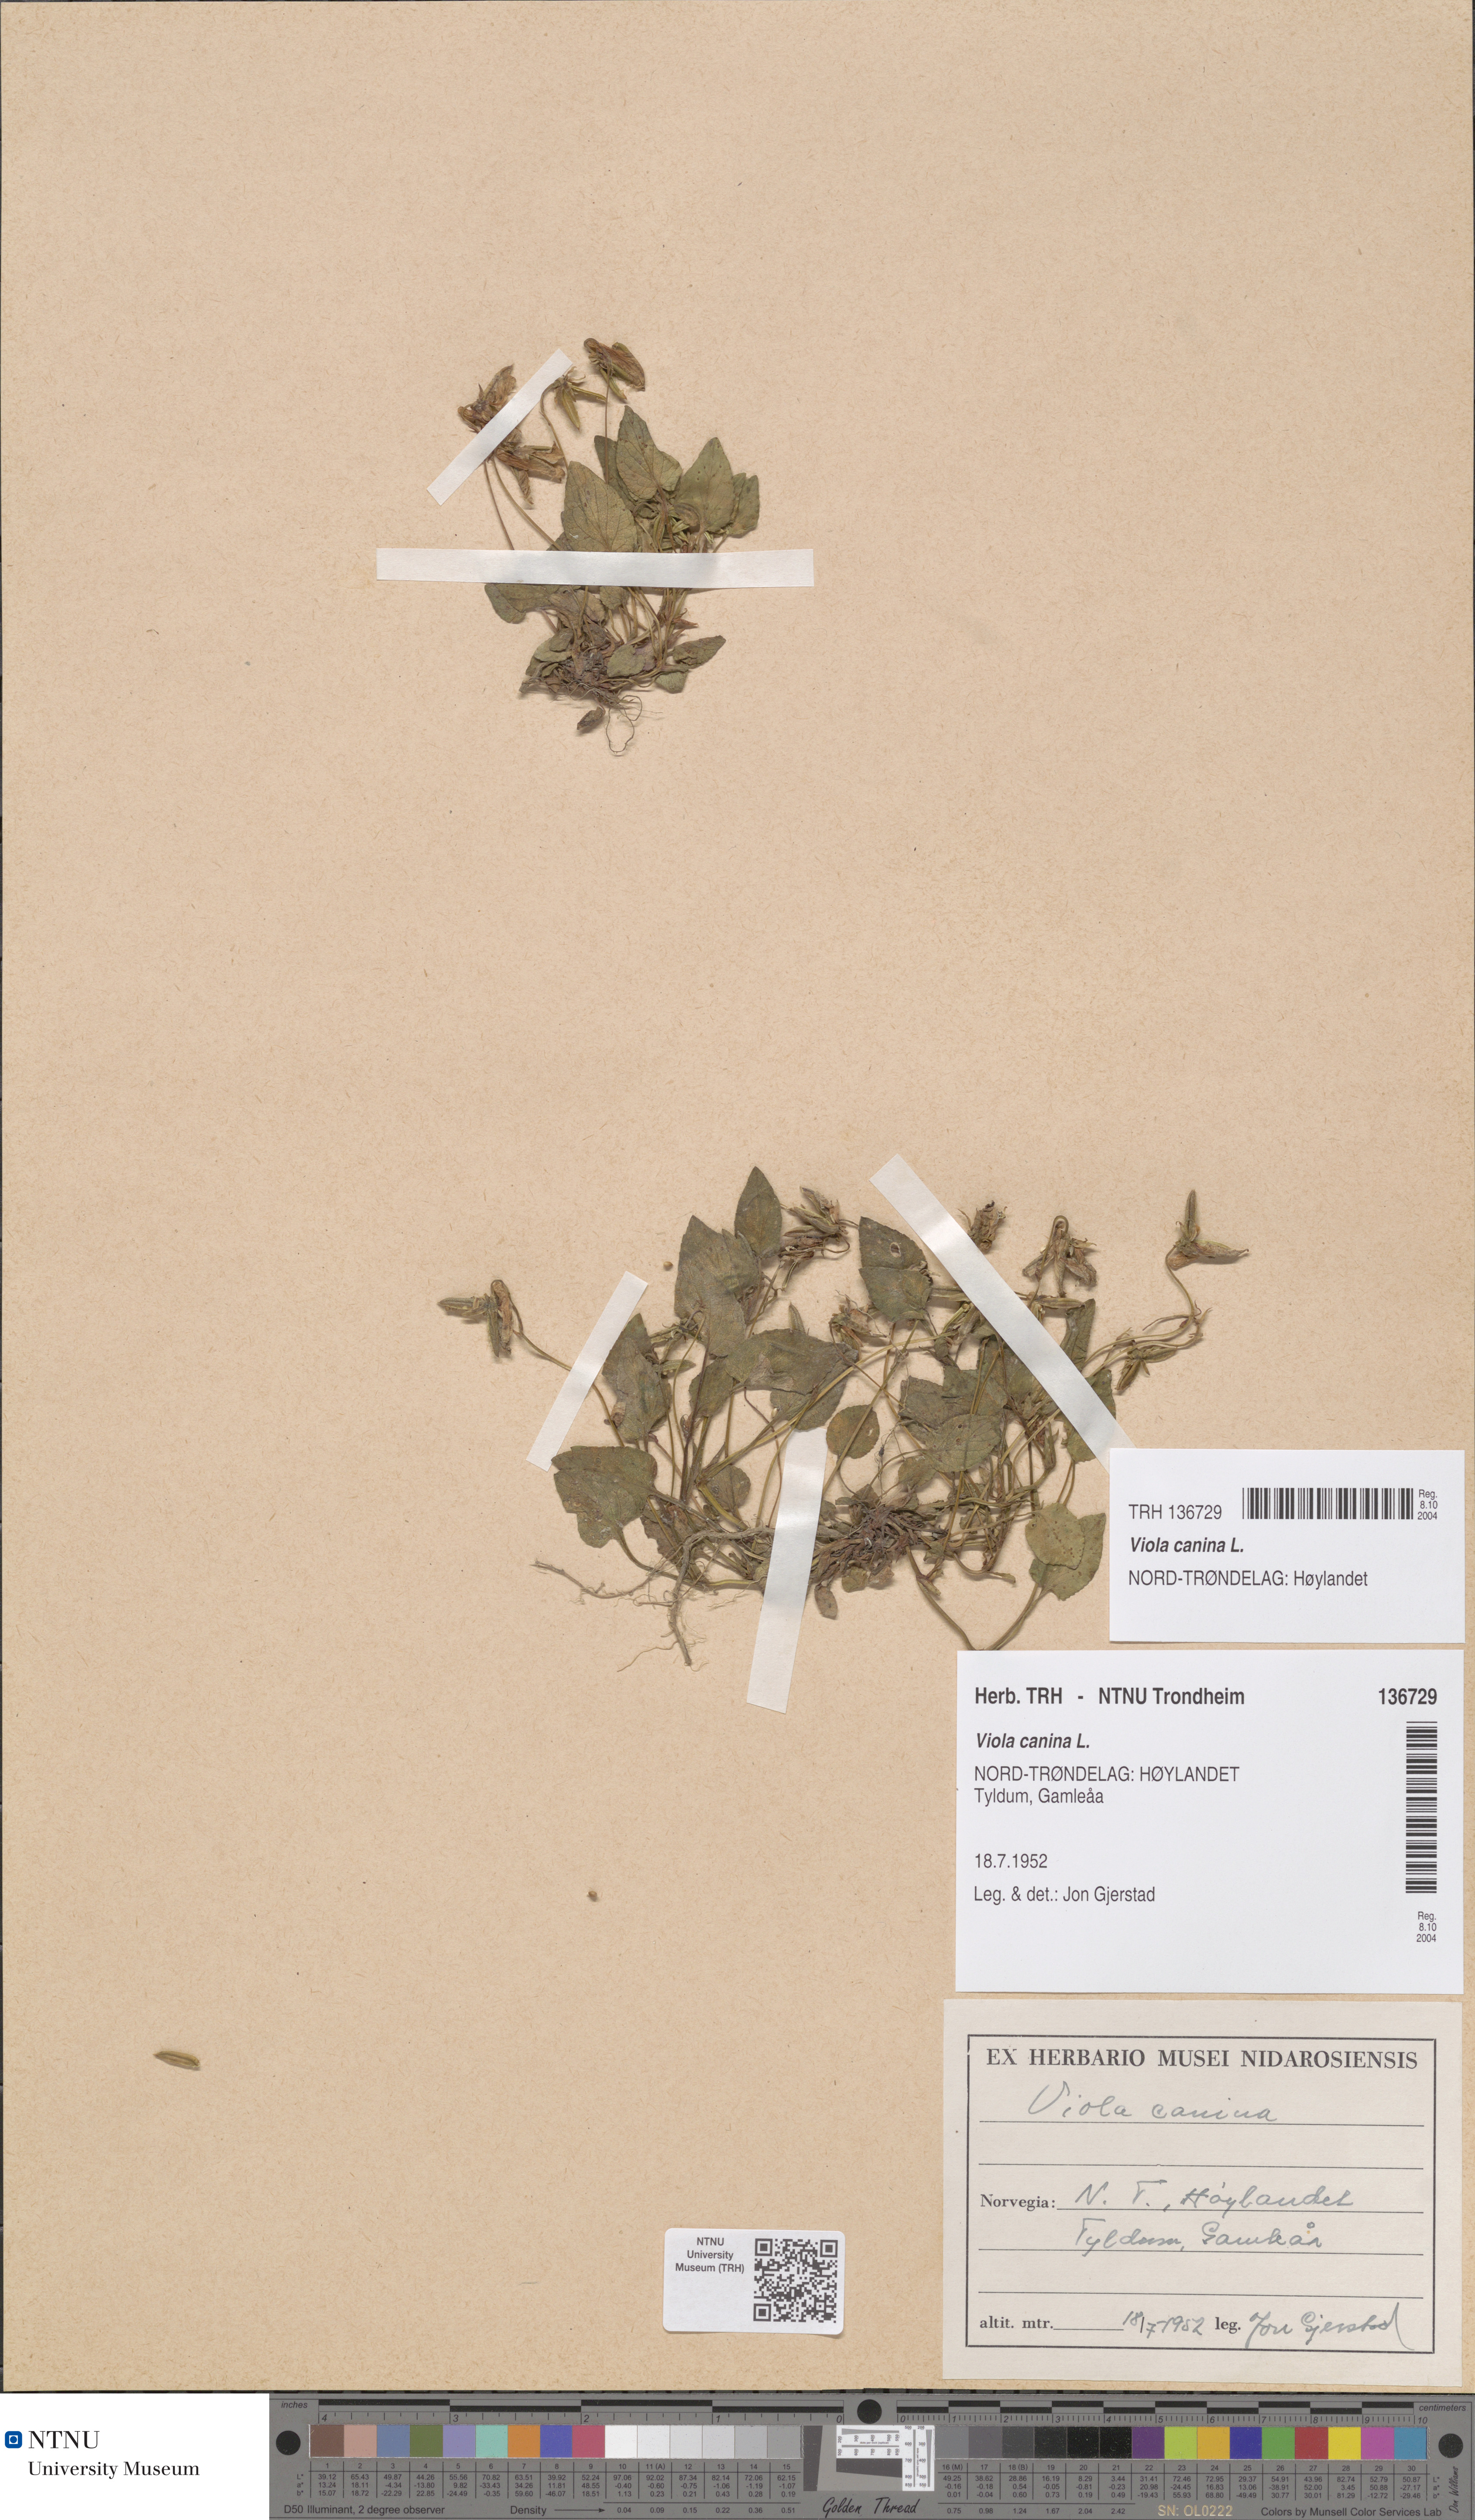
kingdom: Plantae
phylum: Tracheophyta
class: Magnoliopsida
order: Malpighiales
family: Violaceae
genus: Viola
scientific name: Viola canina
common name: Heath dog-violet
